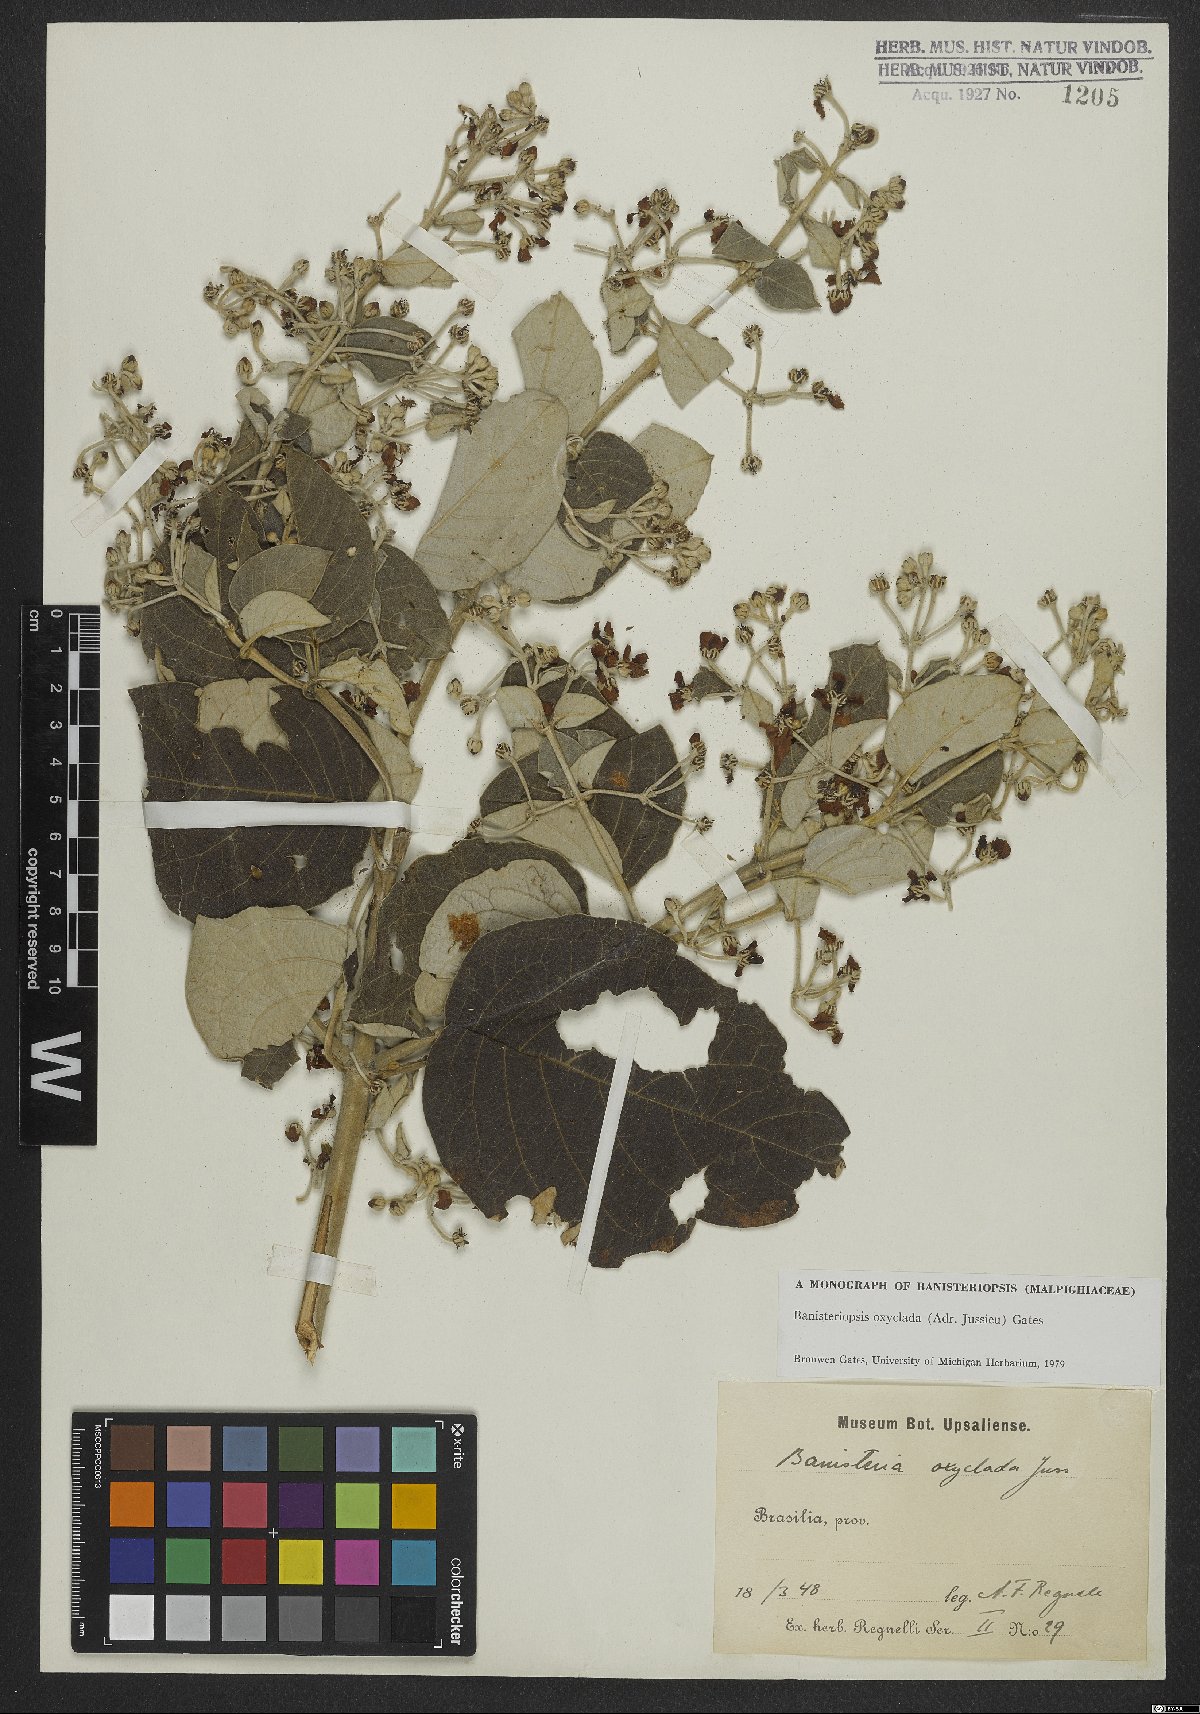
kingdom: Plantae
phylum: Tracheophyta
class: Magnoliopsida
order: Malpighiales
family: Malpighiaceae
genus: Banisteriopsis
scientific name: Banisteriopsis oxyclada
